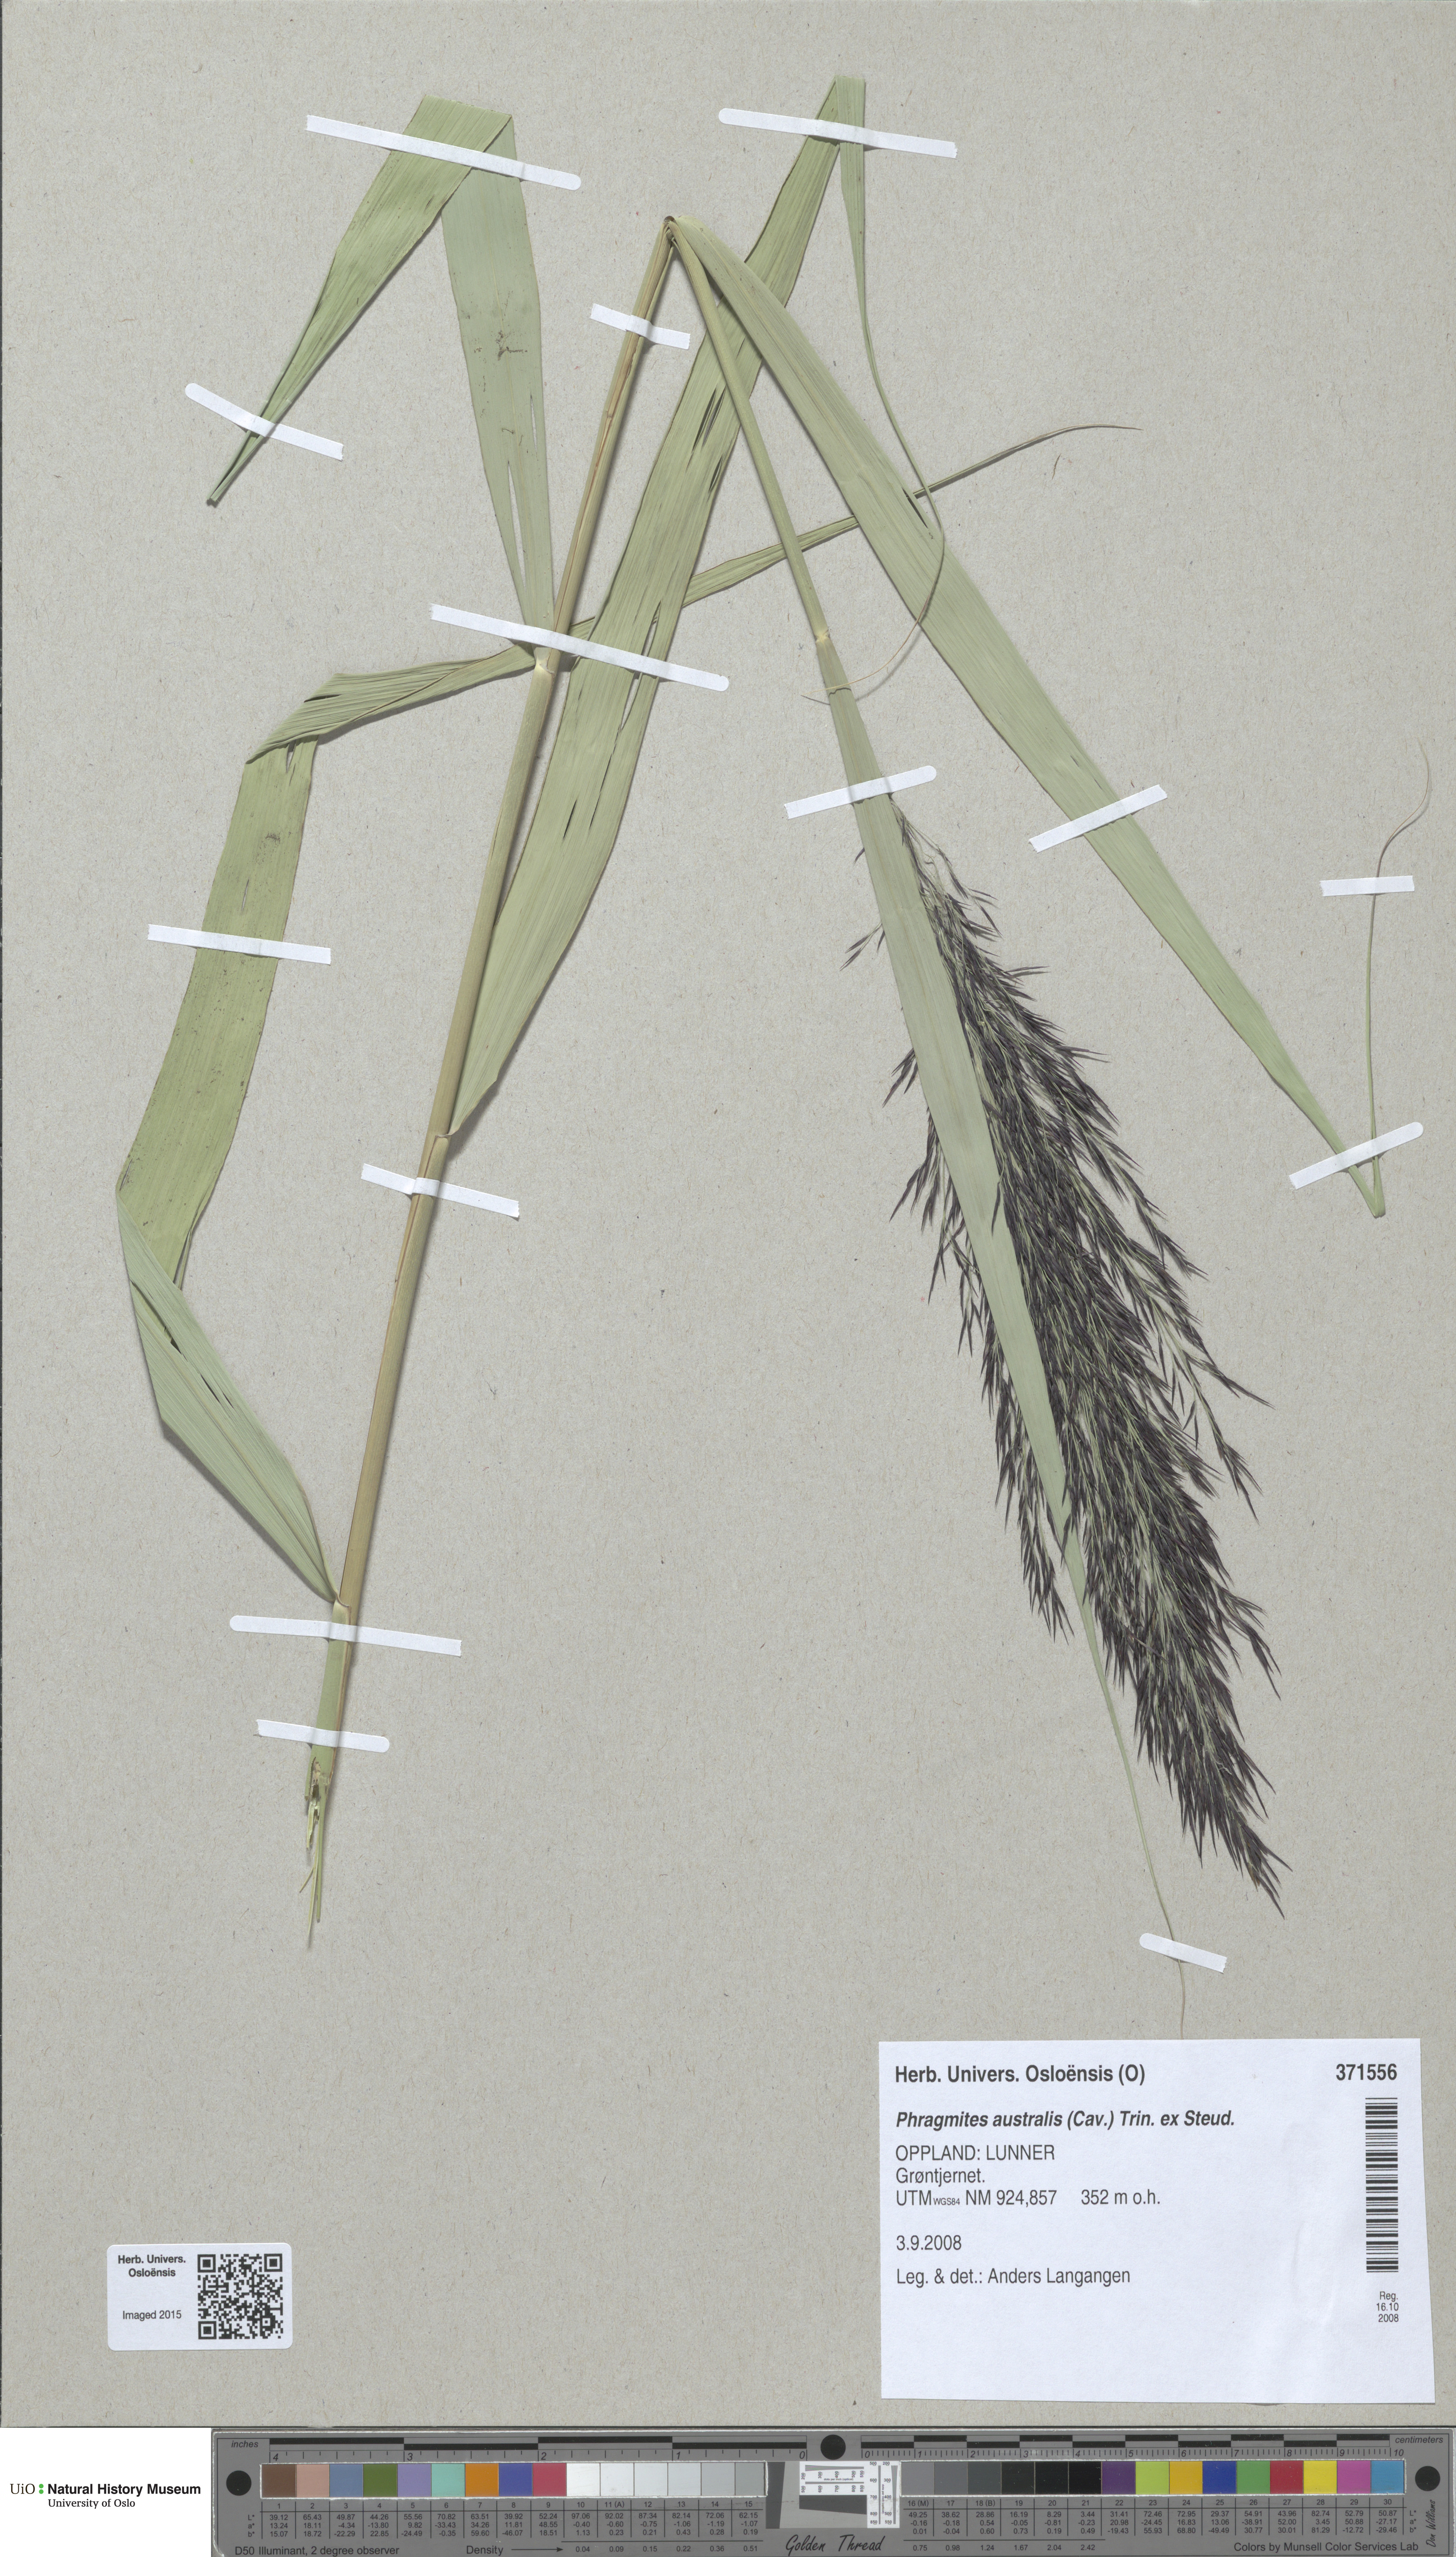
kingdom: Plantae
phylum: Tracheophyta
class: Liliopsida
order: Poales
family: Poaceae
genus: Phragmites
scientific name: Phragmites australis
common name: Common reed
